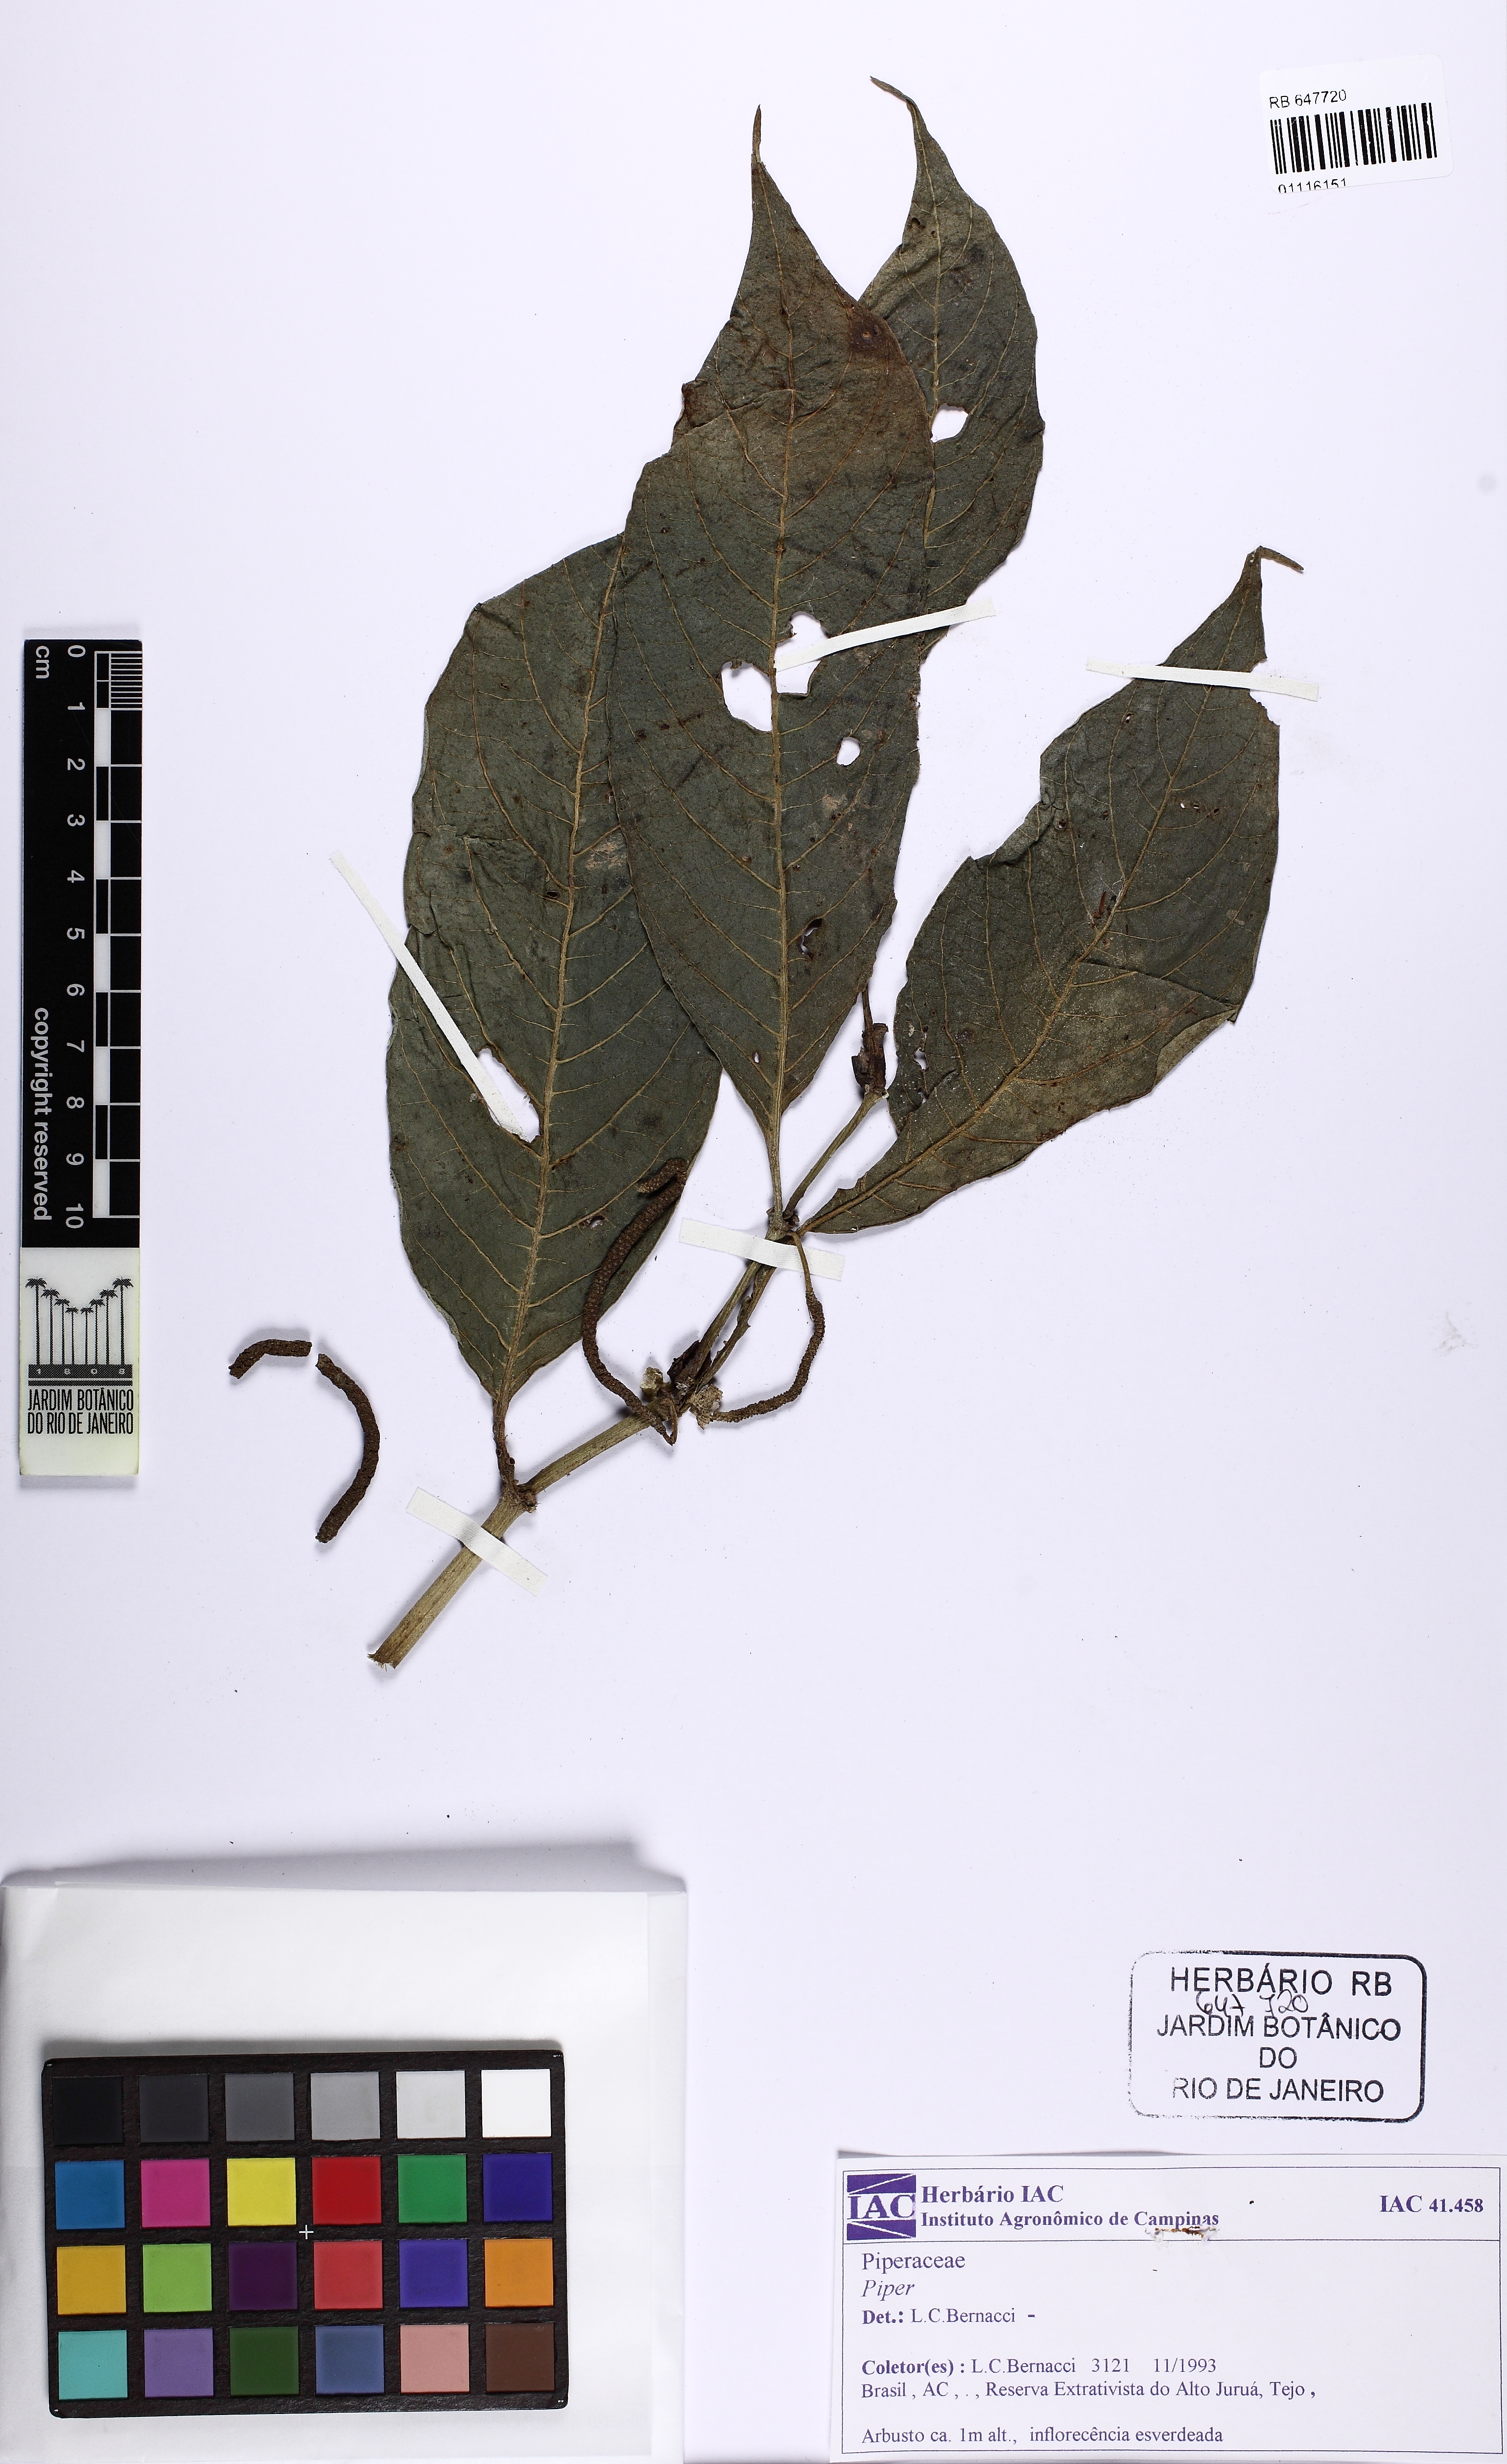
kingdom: Plantae
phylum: Tracheophyta
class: Magnoliopsida
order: Piperales
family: Piperaceae
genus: Piper
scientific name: Piper
